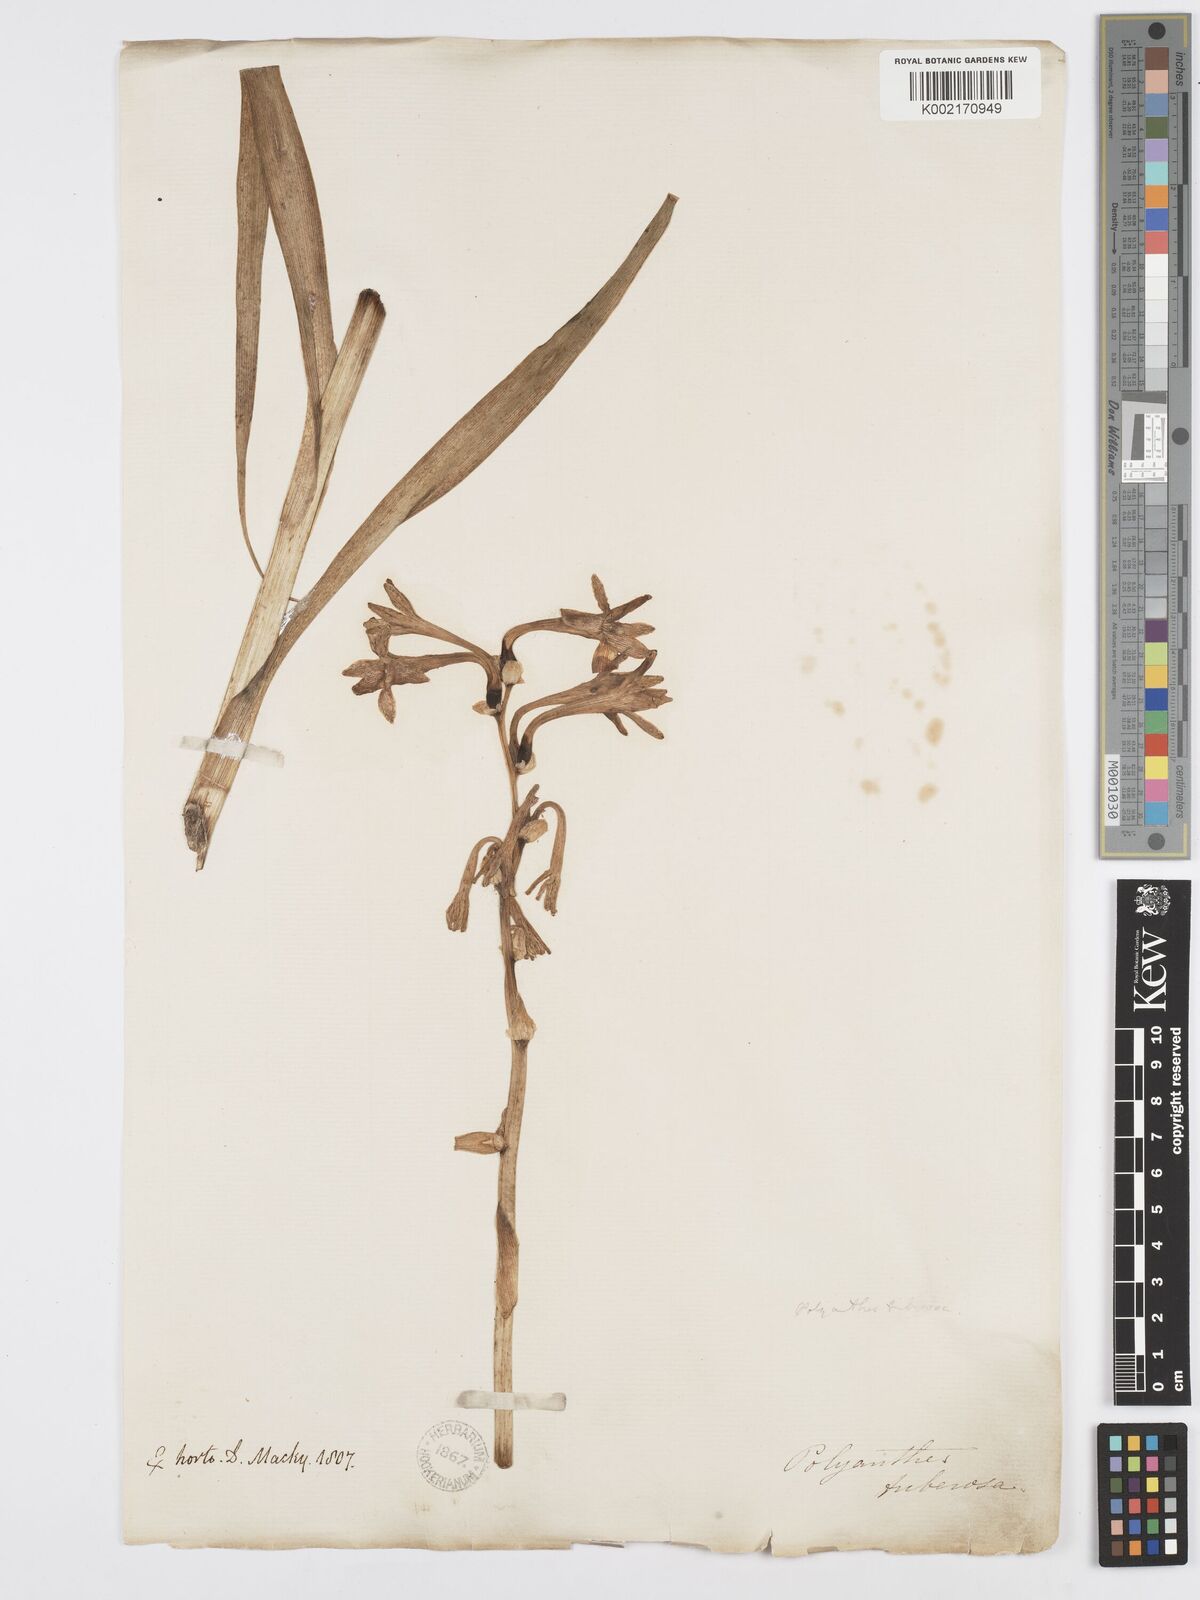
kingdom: Plantae
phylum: Tracheophyta
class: Liliopsida
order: Asparagales
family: Asparagaceae
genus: Agave
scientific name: Agave amica
